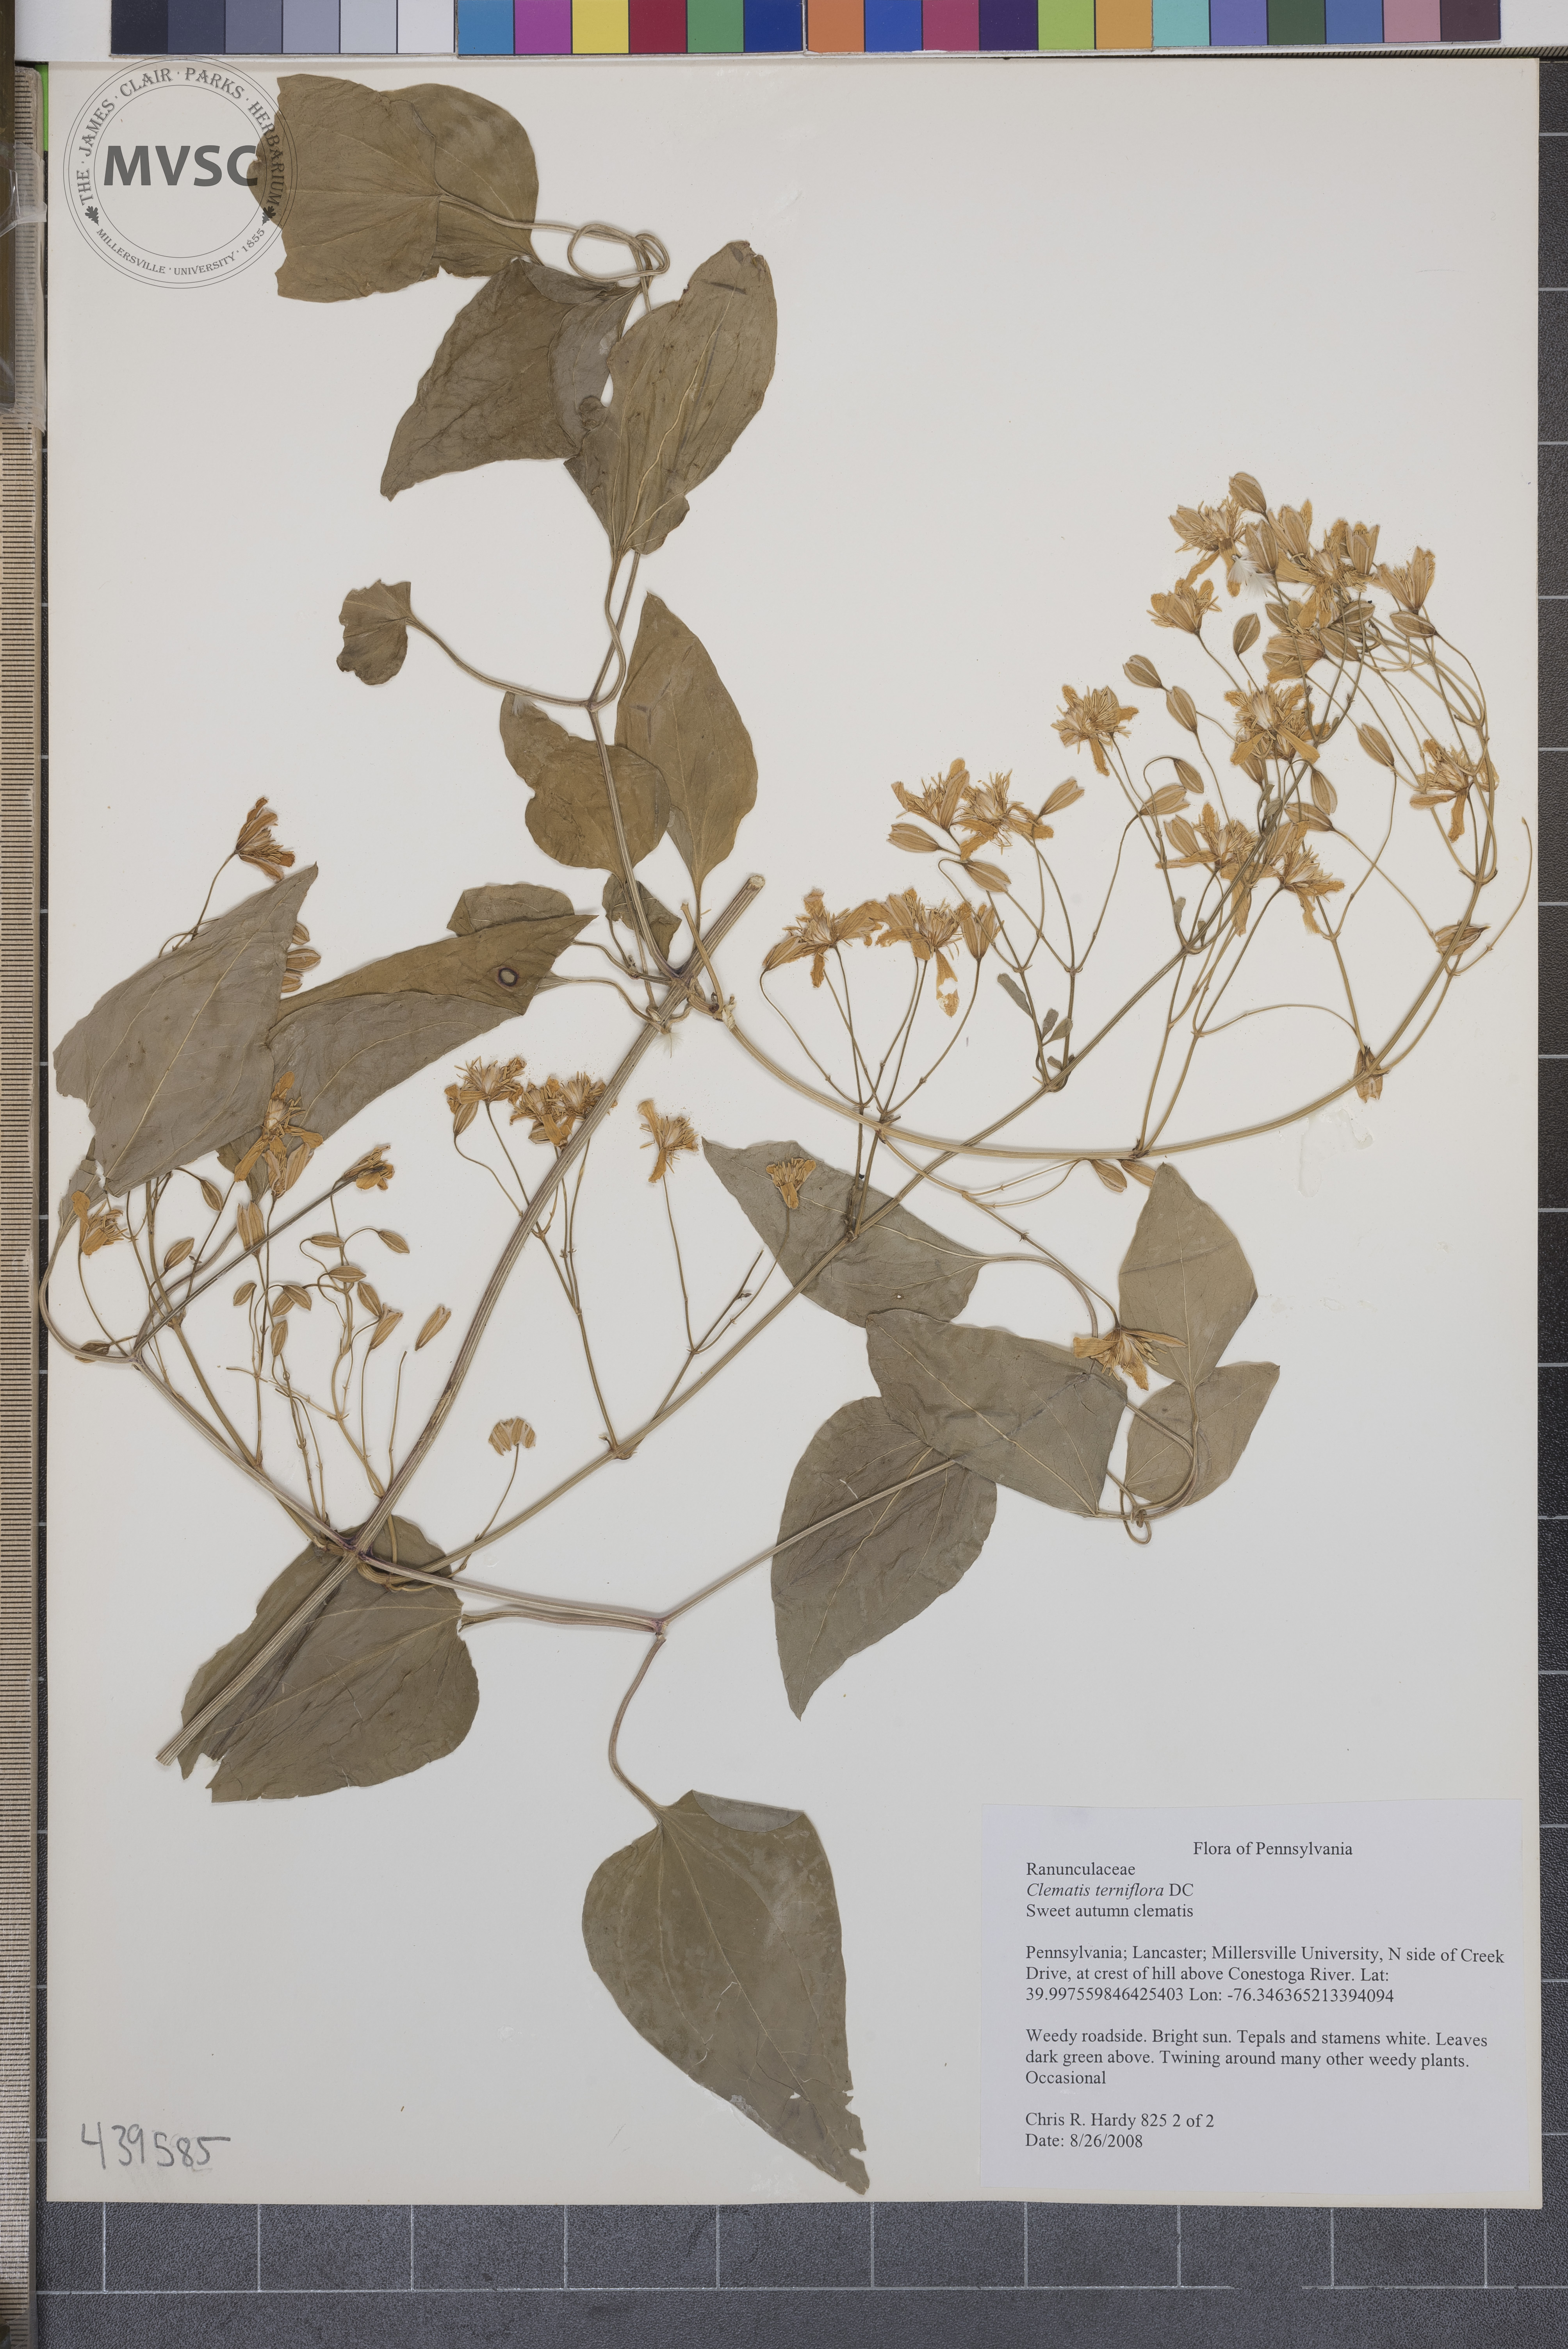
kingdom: Plantae
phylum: Tracheophyta
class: Magnoliopsida
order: Ranunculales
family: Ranunculaceae
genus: Clematis
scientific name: Clematis terniflora
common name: Sweet autumn clematis
